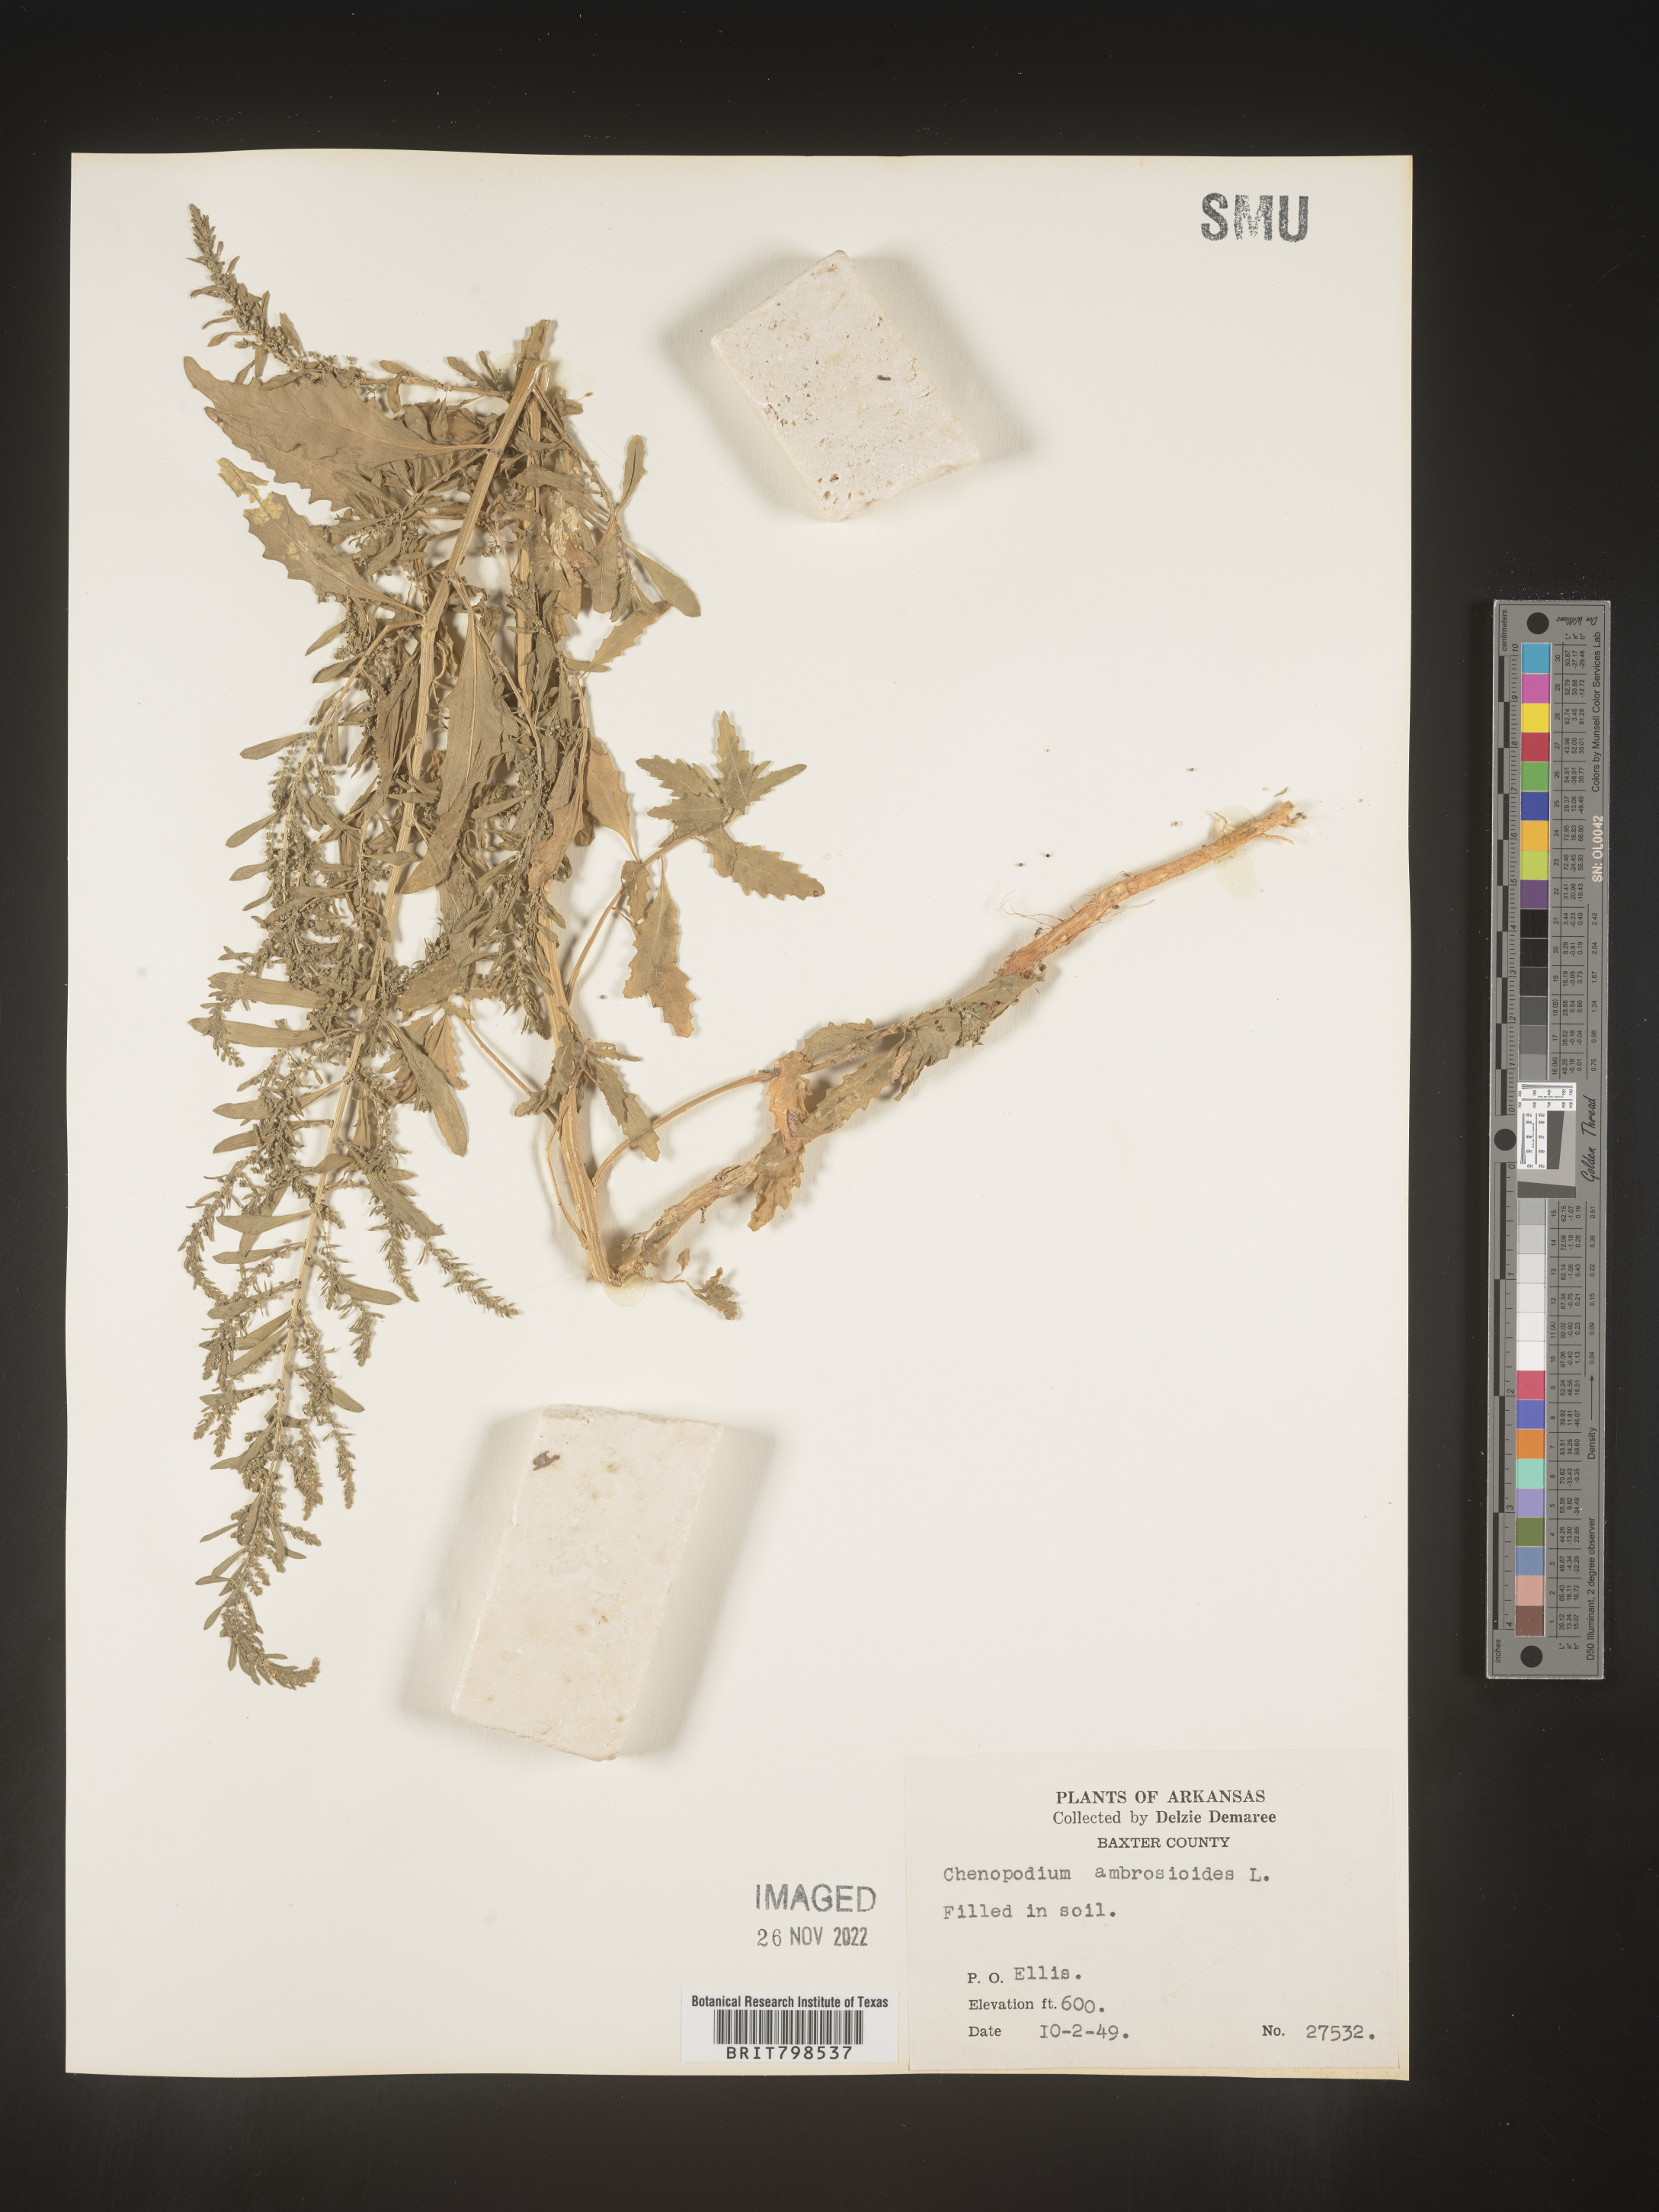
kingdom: Plantae
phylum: Tracheophyta
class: Magnoliopsida
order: Caryophyllales
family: Amaranthaceae
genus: Dysphania
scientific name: Dysphania ambrosioides
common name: Wormseed
